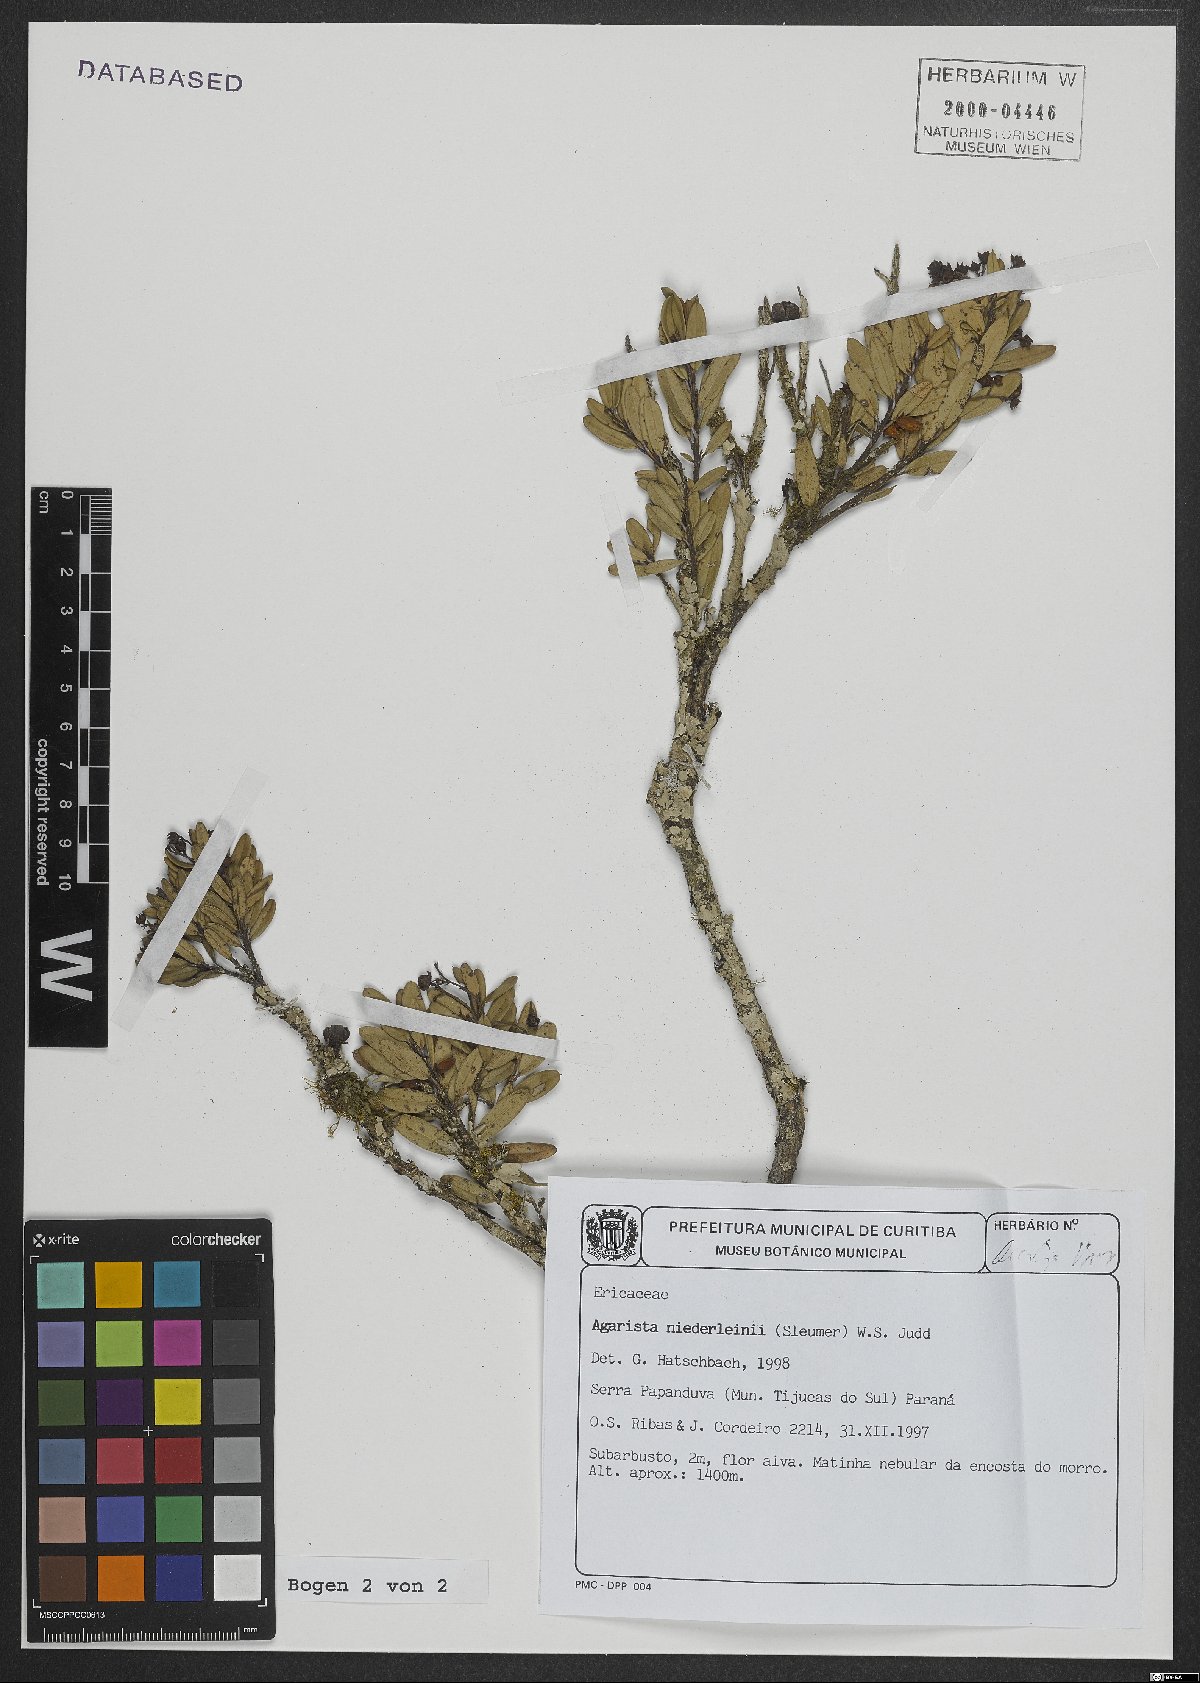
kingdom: Plantae
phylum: Tracheophyta
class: Magnoliopsida
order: Ericales
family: Ericaceae
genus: Agarista
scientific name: Agarista niederleinii
